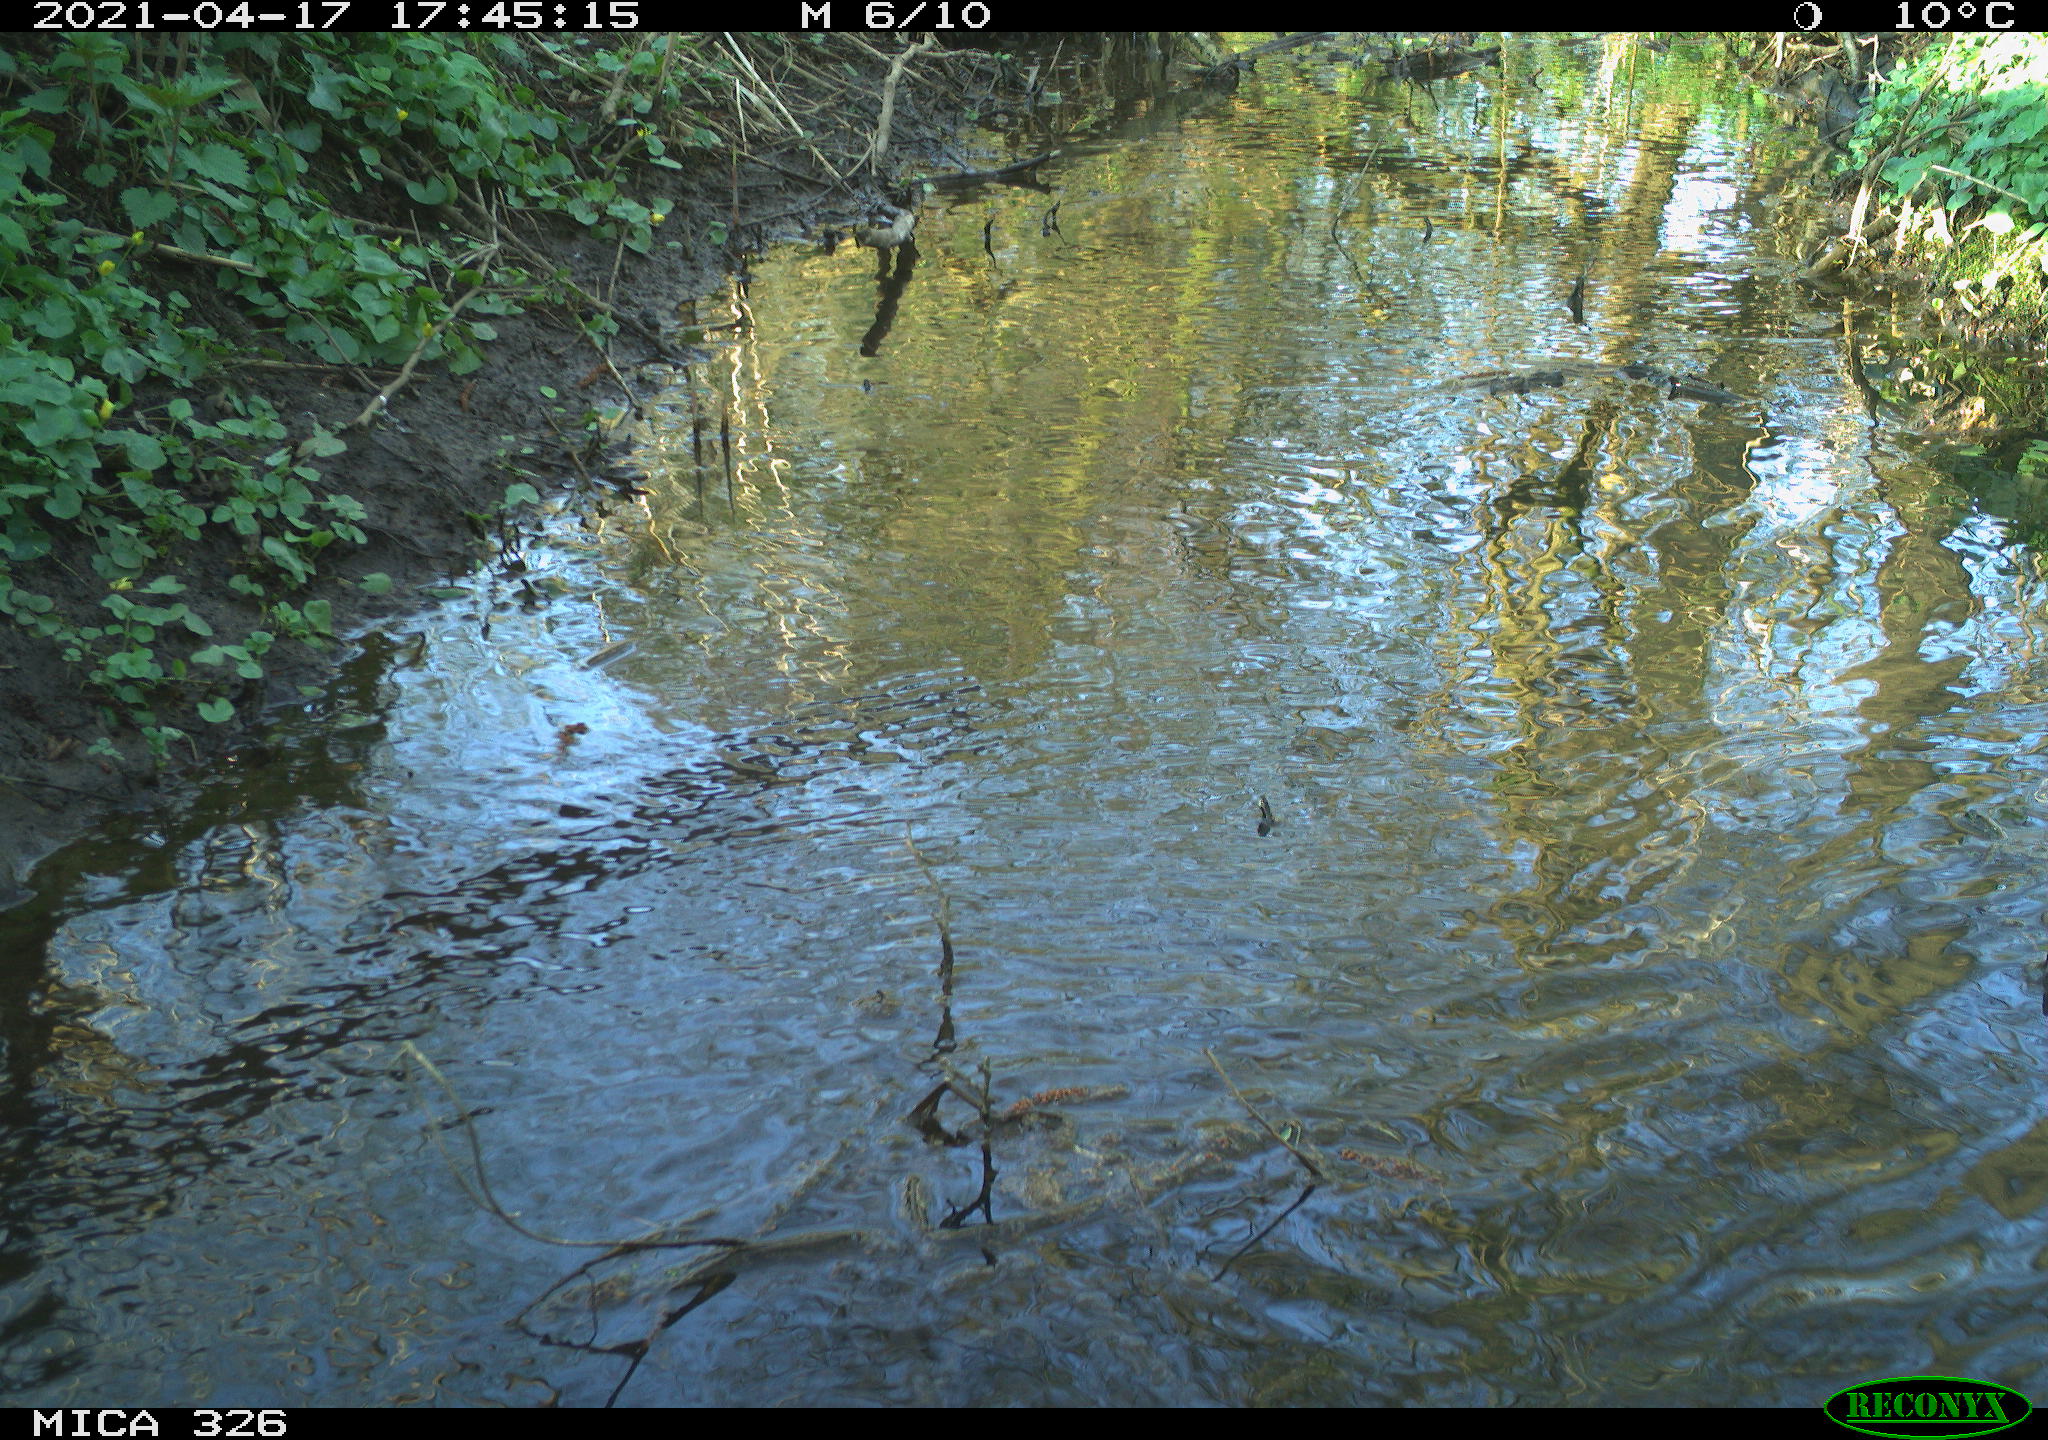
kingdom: Animalia
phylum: Chordata
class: Aves
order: Anseriformes
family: Anatidae
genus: Anas
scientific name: Anas platyrhynchos
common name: Mallard
